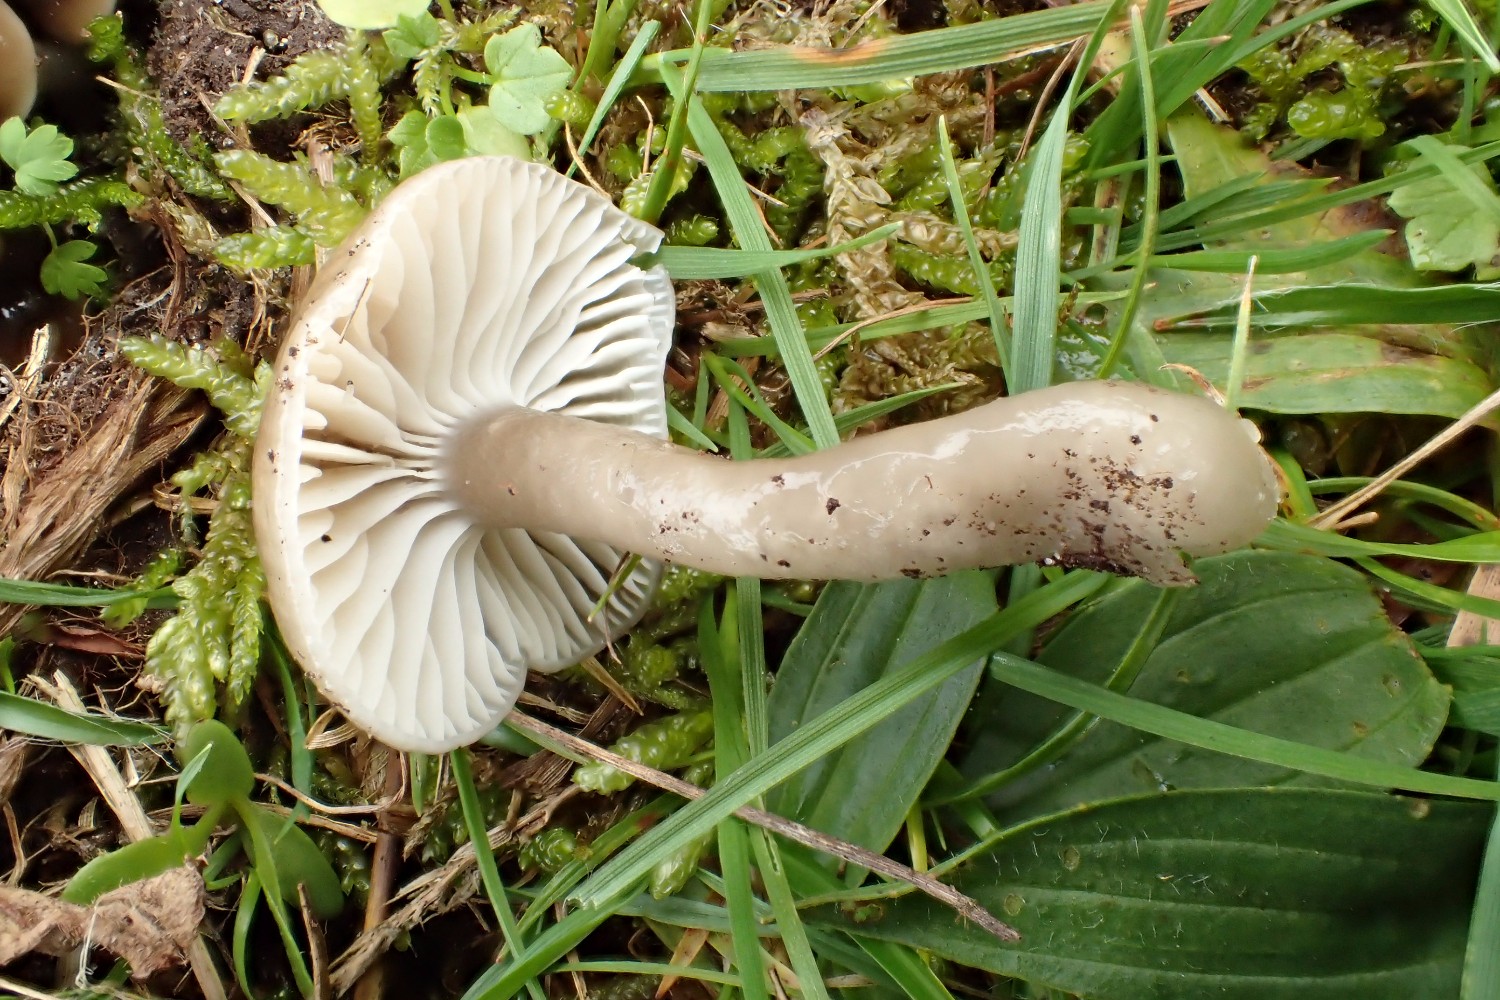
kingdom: Fungi
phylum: Basidiomycota
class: Agaricomycetes
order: Agaricales
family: Hygrophoraceae
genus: Gliophorus
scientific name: Gliophorus irrigatus
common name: slimet vokshat
